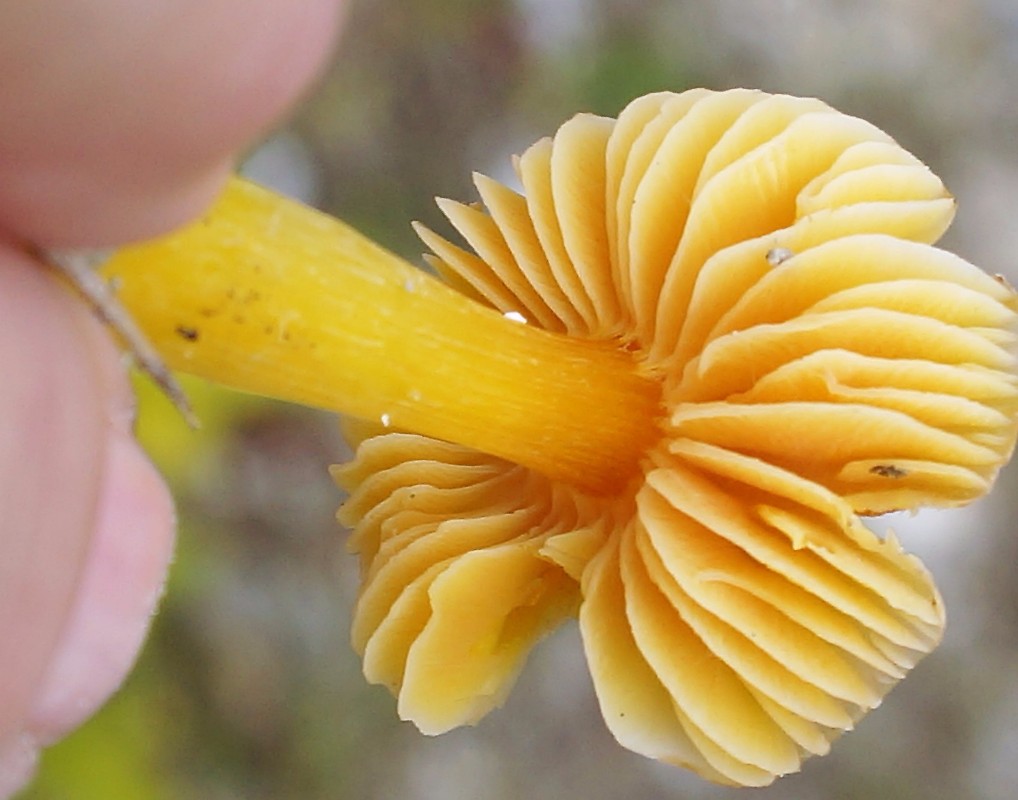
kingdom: Fungi
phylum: Basidiomycota
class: Agaricomycetes
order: Agaricales
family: Hygrophoraceae
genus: Hygrocybe
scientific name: Hygrocybe
